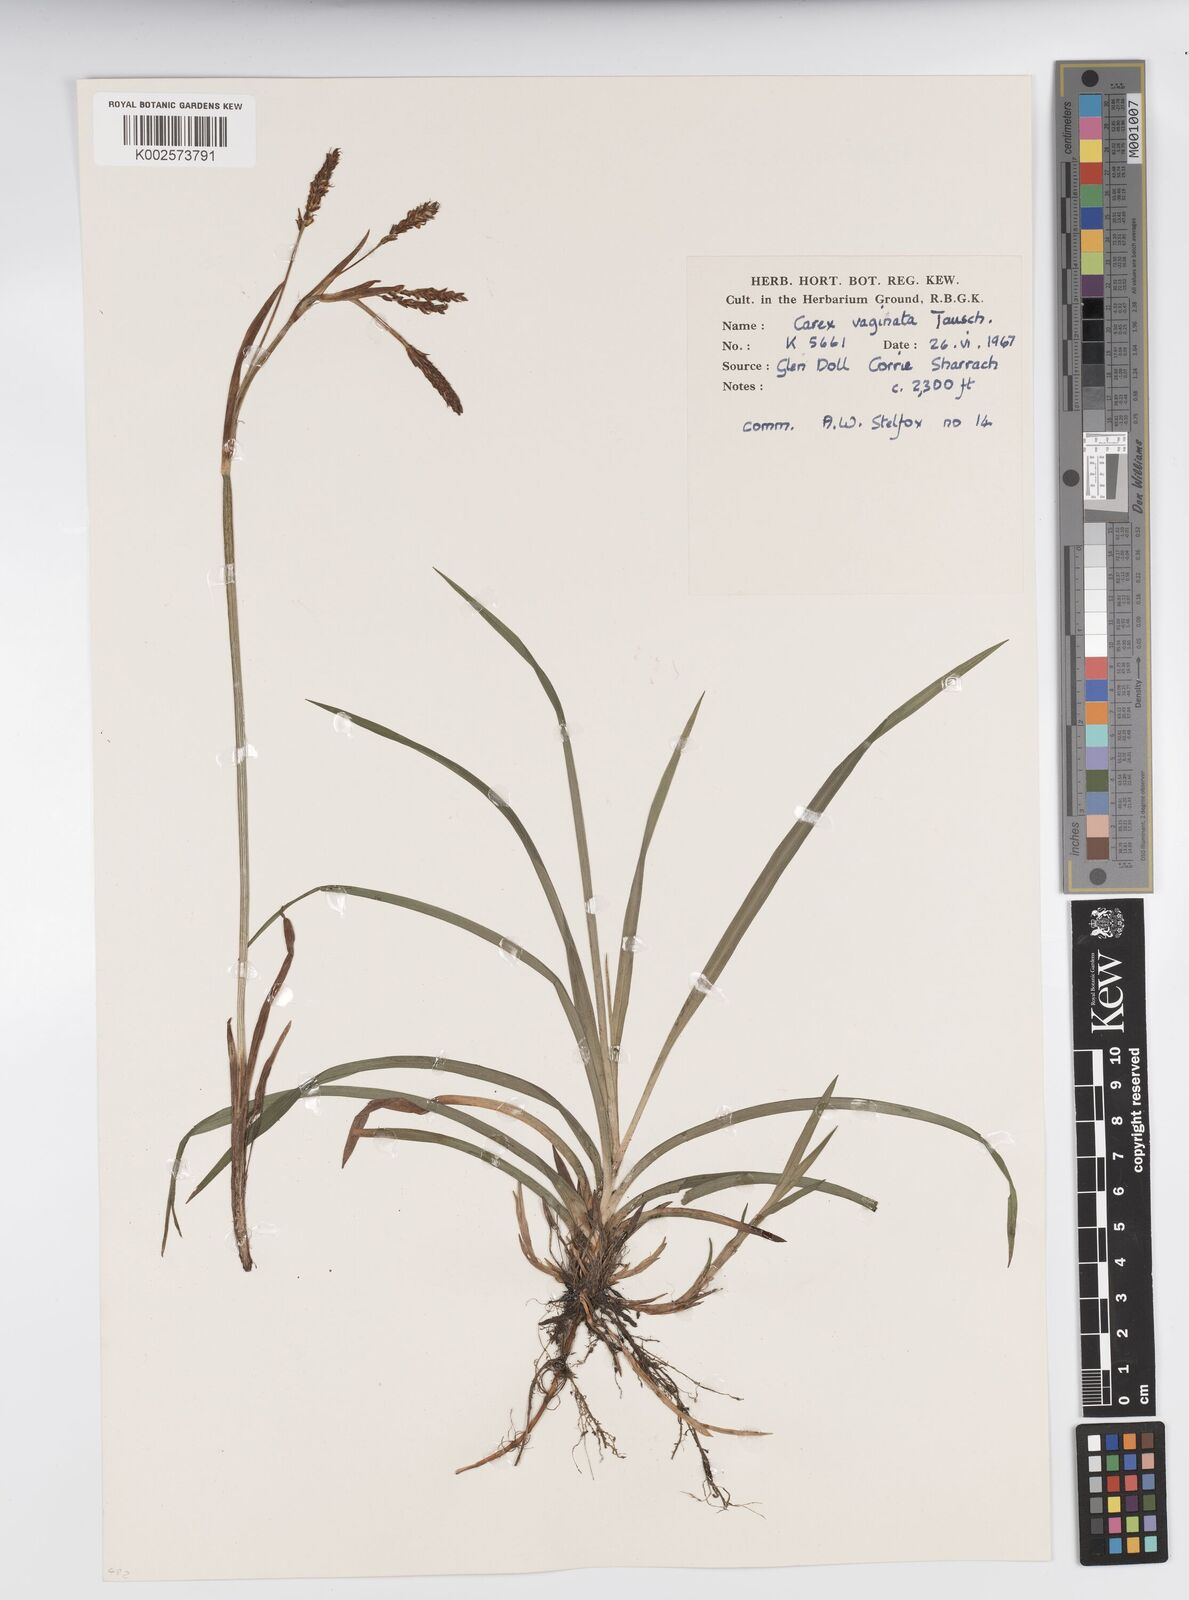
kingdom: Plantae
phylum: Tracheophyta
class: Liliopsida
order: Poales
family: Cyperaceae
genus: Carex
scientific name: Carex vaginata
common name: Sheathed sedge
